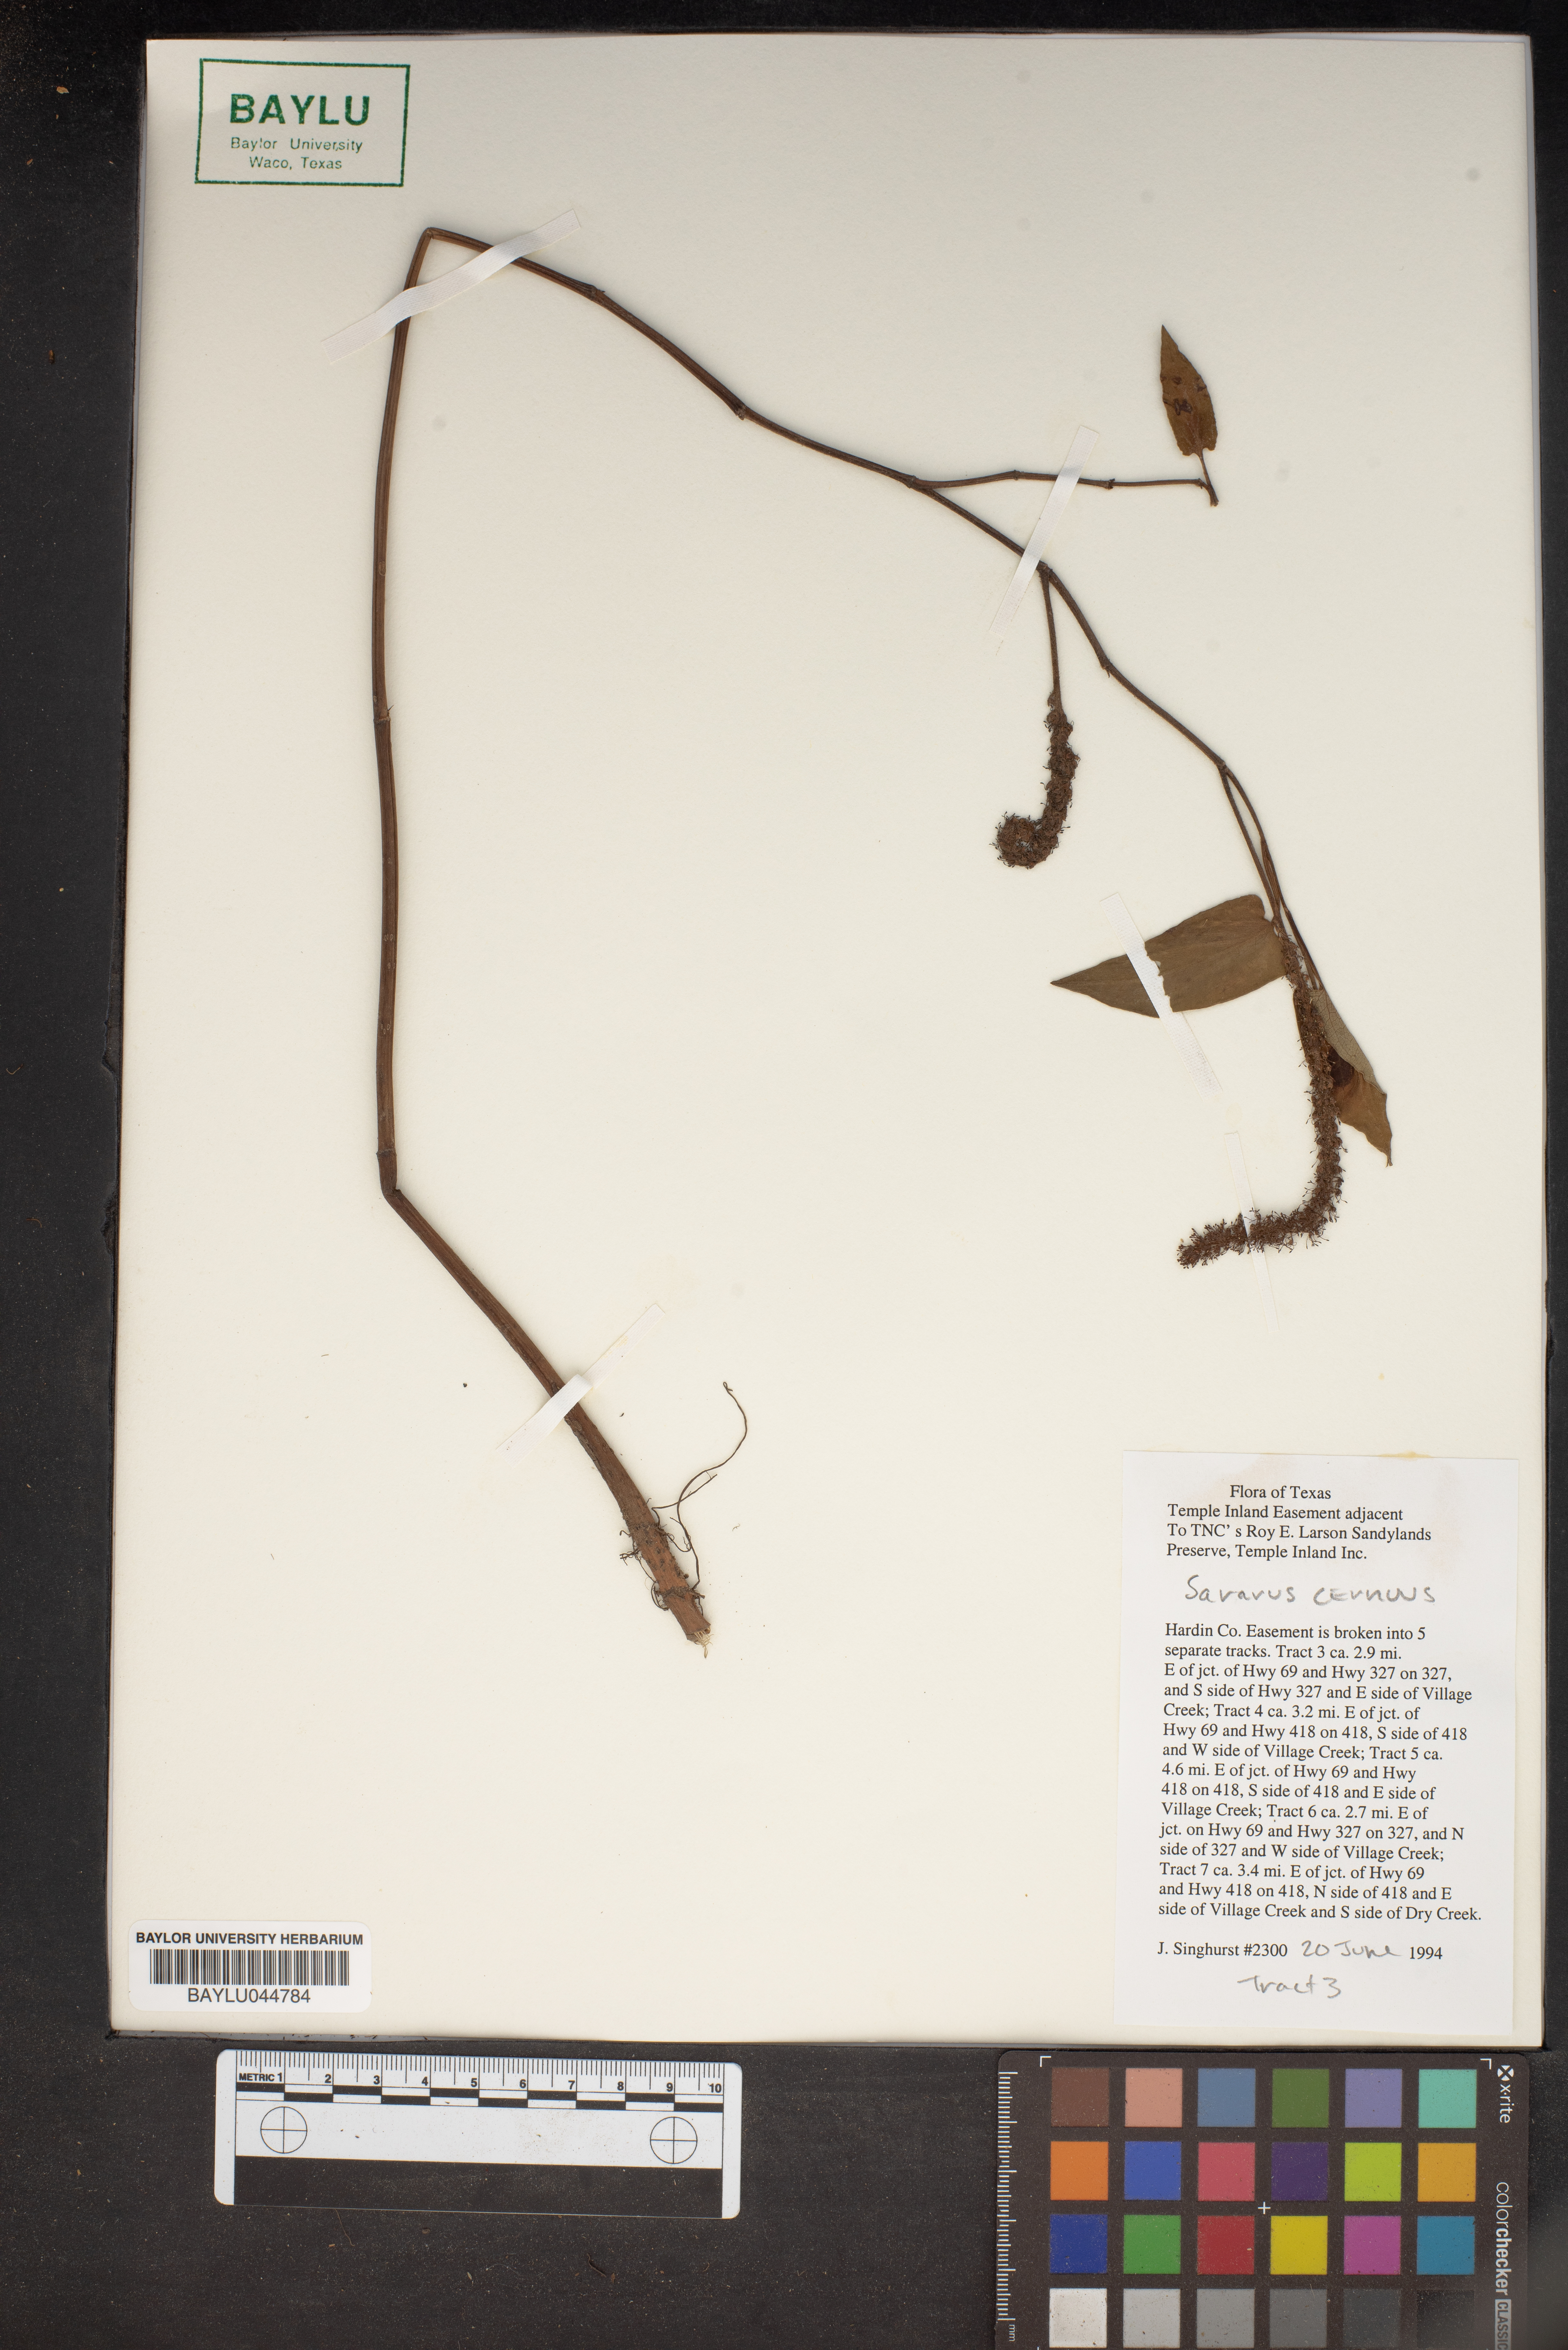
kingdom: Plantae
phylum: Tracheophyta
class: Magnoliopsida
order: Piperales
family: Saururaceae
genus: Saururus
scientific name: Saururus cernuus
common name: Lizard's-tail
